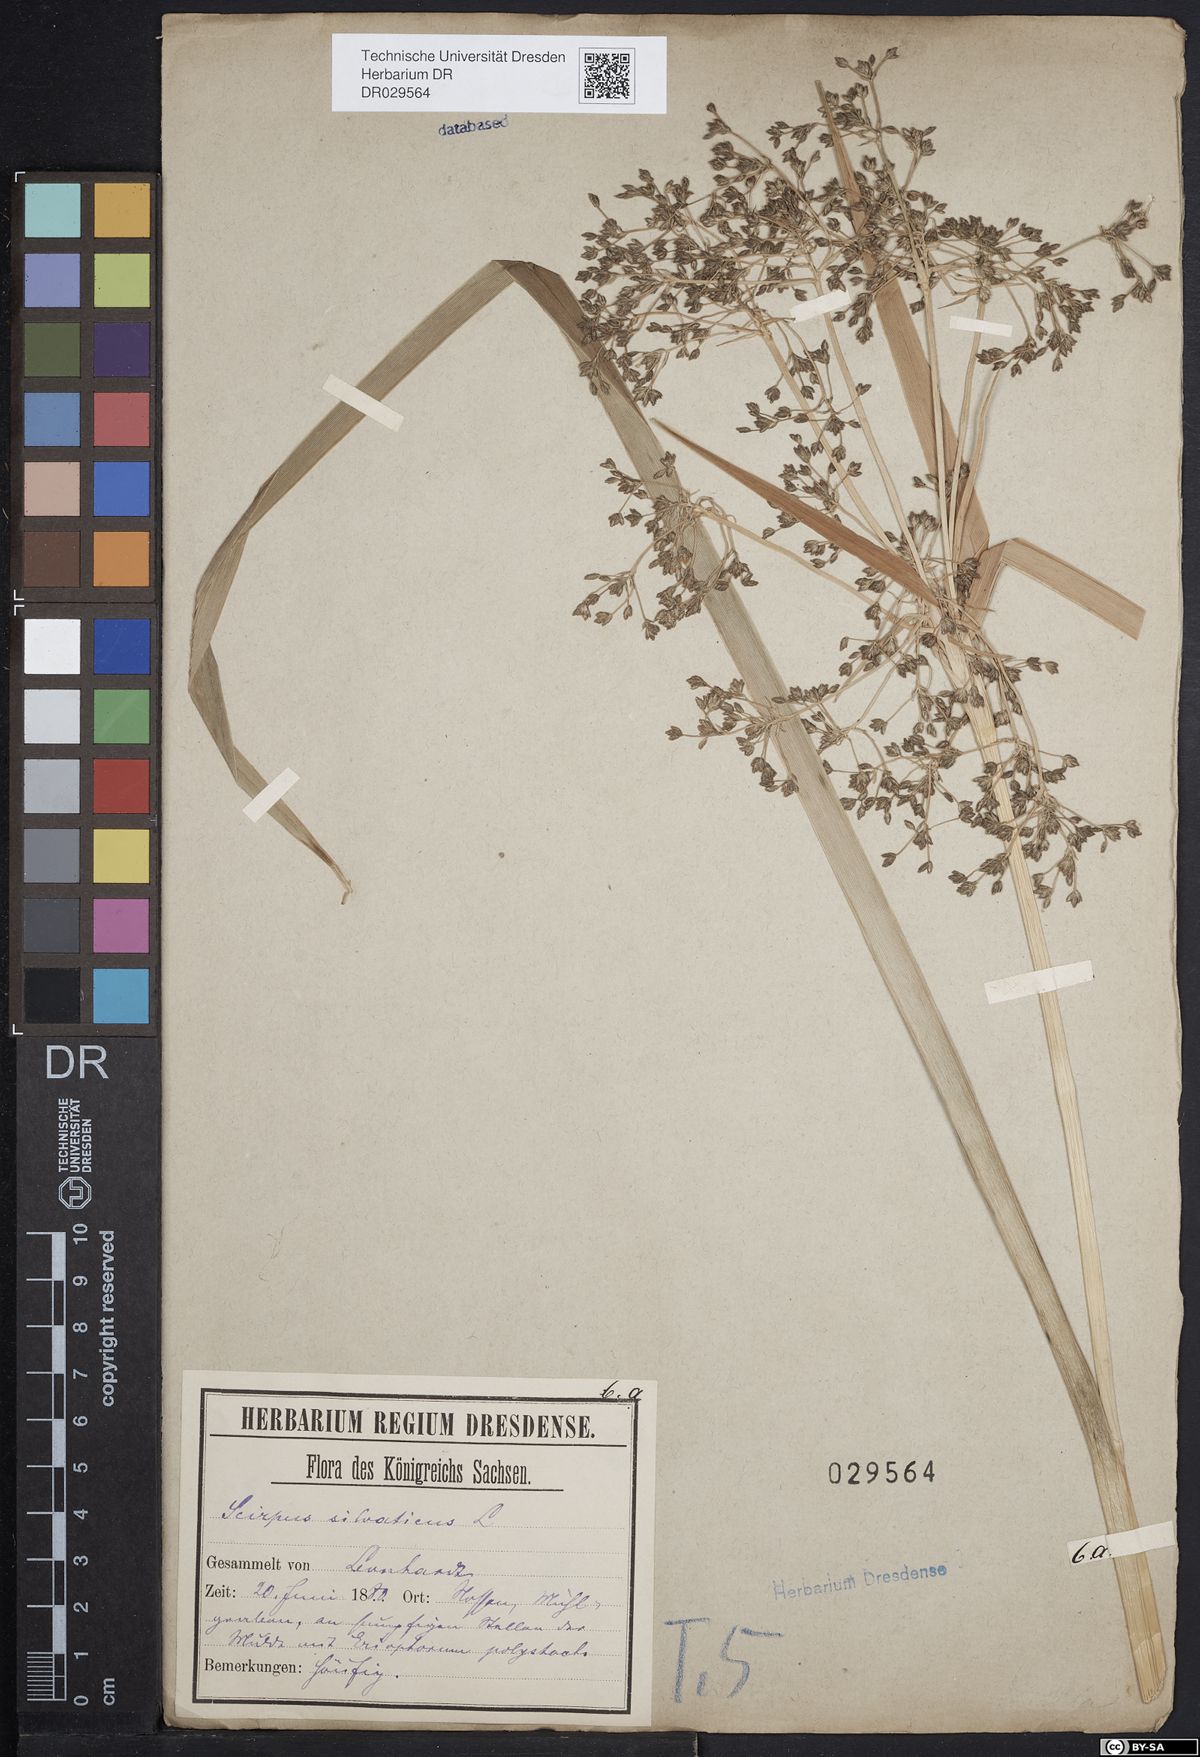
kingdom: Plantae
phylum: Tracheophyta
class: Liliopsida
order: Poales
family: Cyperaceae
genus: Scirpus
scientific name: Scirpus sylvaticus
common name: Wood club-rush
